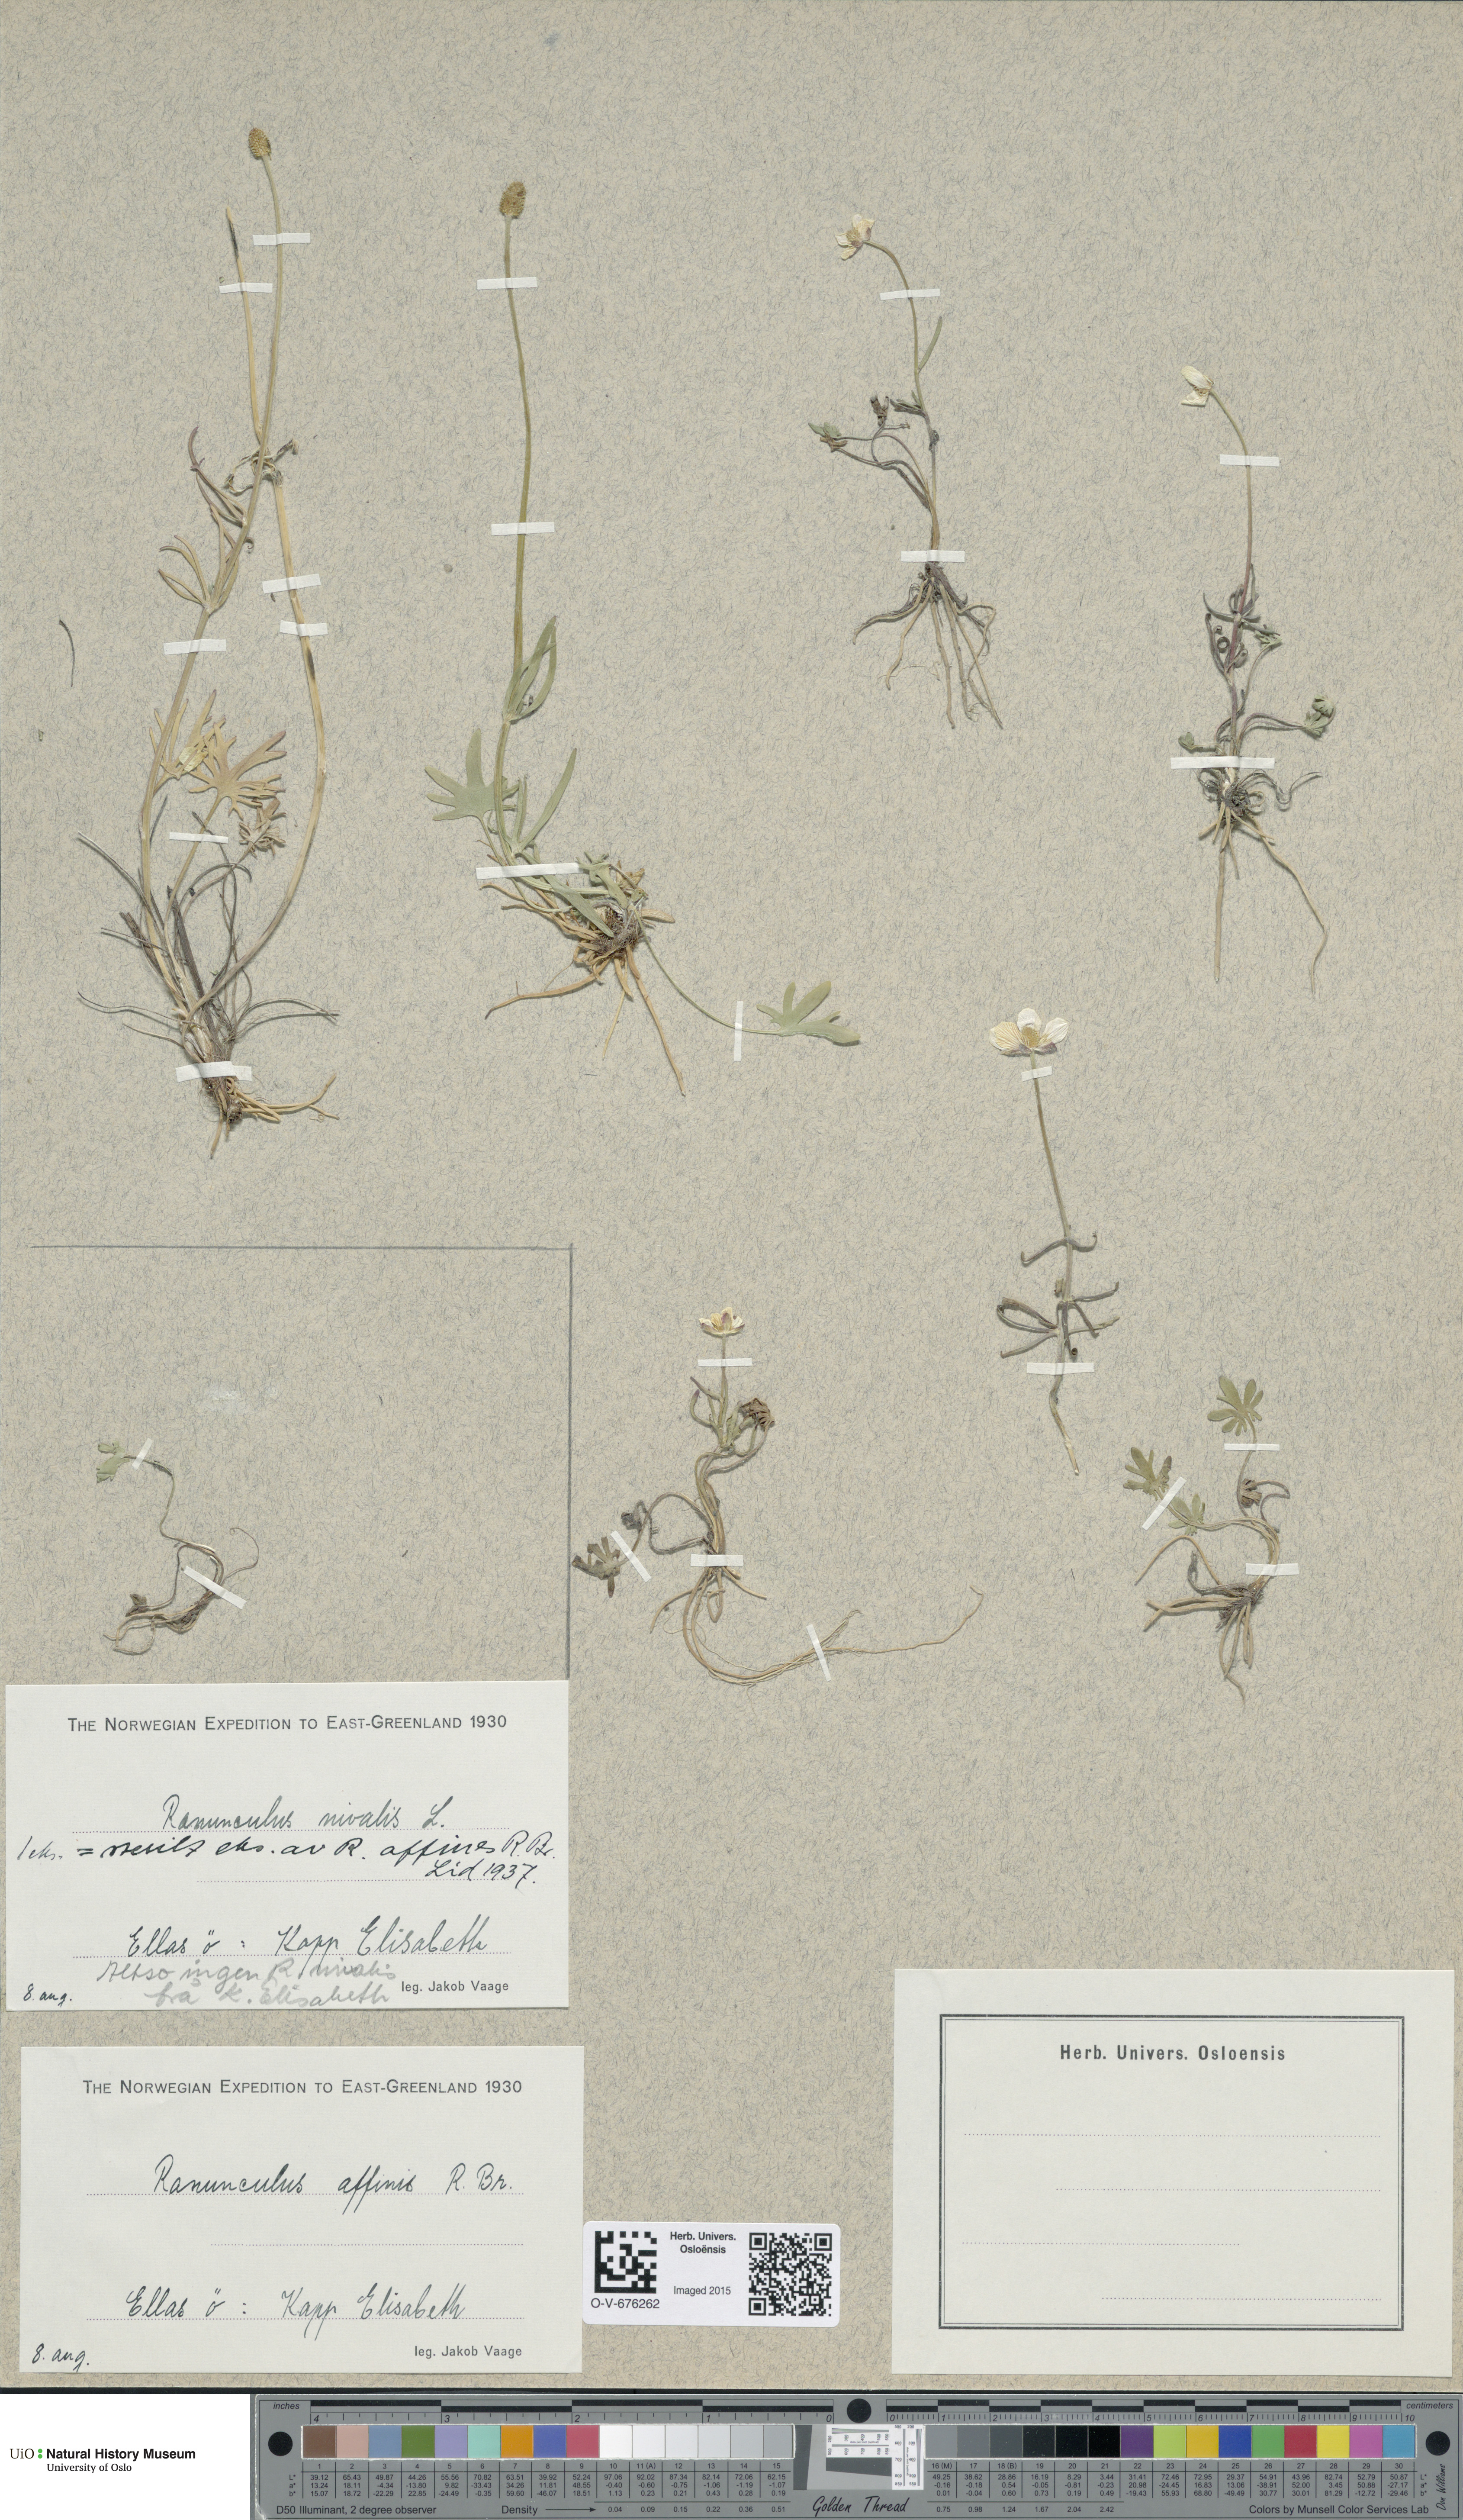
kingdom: Plantae
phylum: Tracheophyta
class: Magnoliopsida
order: Ranunculales
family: Ranunculaceae
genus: Ranunculus
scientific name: Ranunculus arcticus
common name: Bird's-foot buttercup
